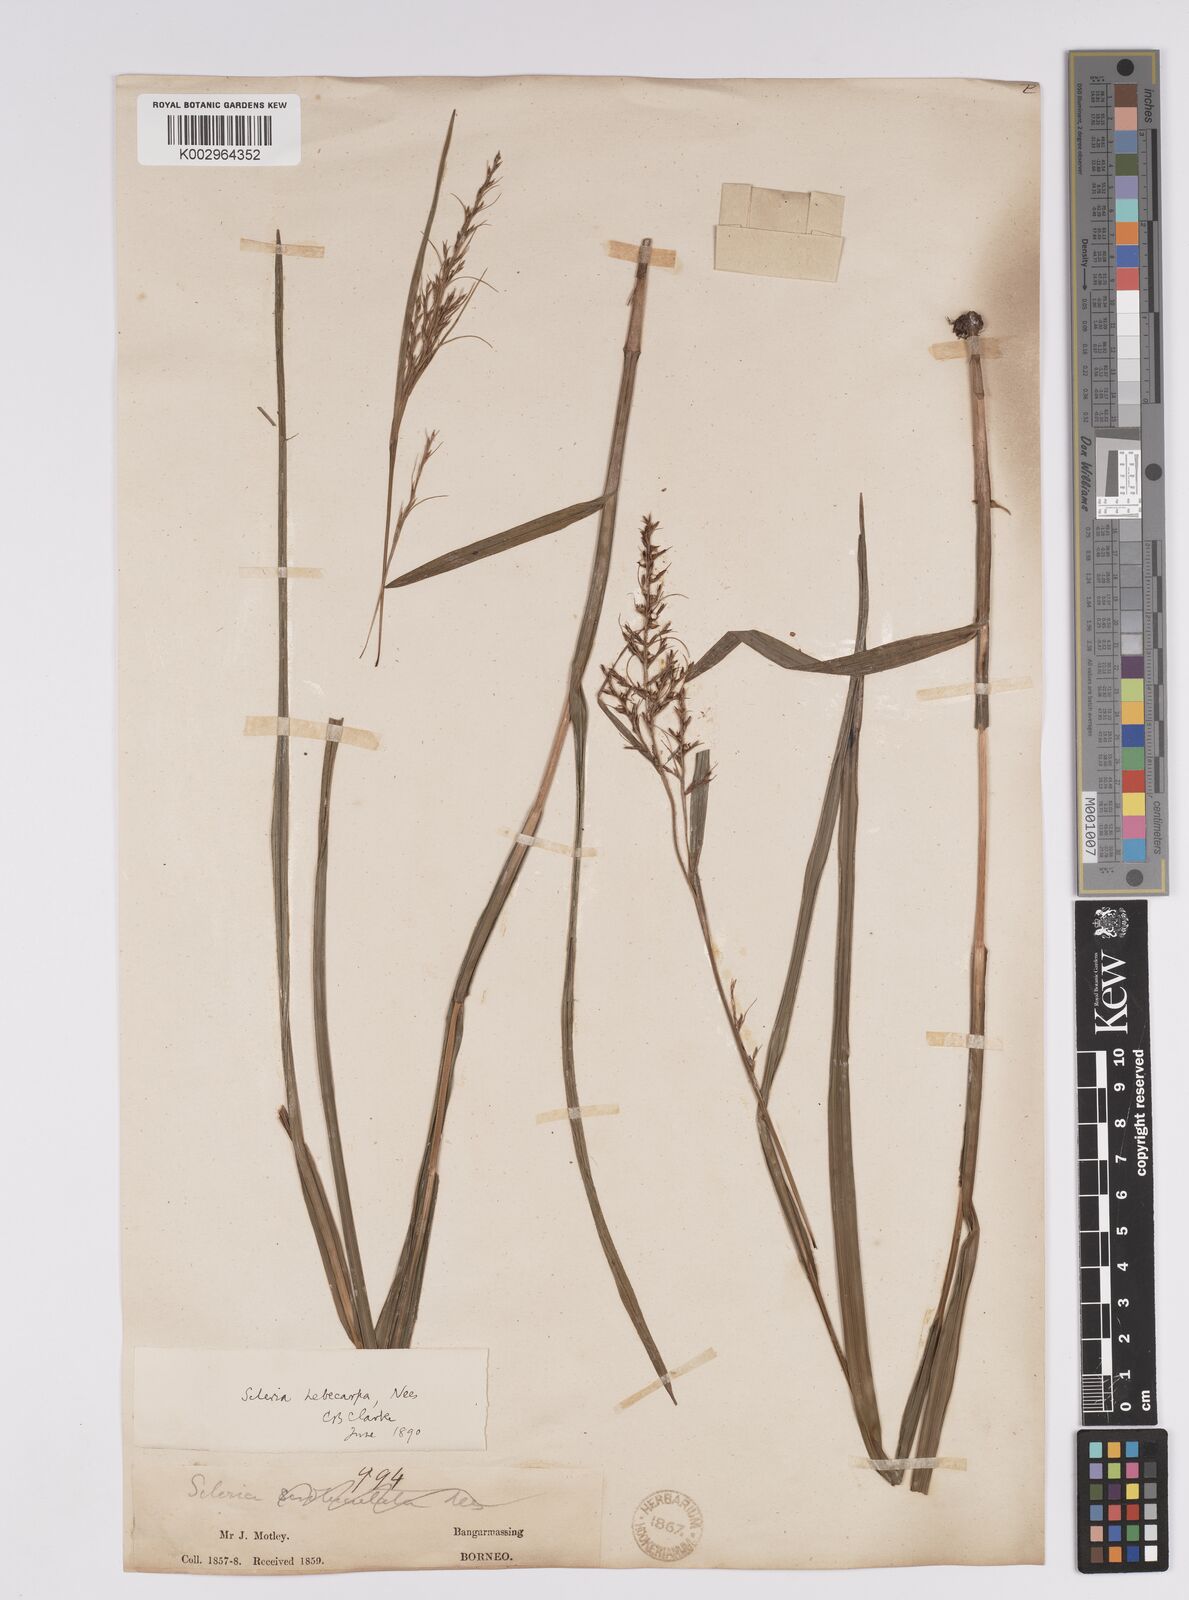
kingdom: Plantae
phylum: Tracheophyta
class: Liliopsida
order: Poales
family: Cyperaceae
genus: Scleria
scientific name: Scleria levis
